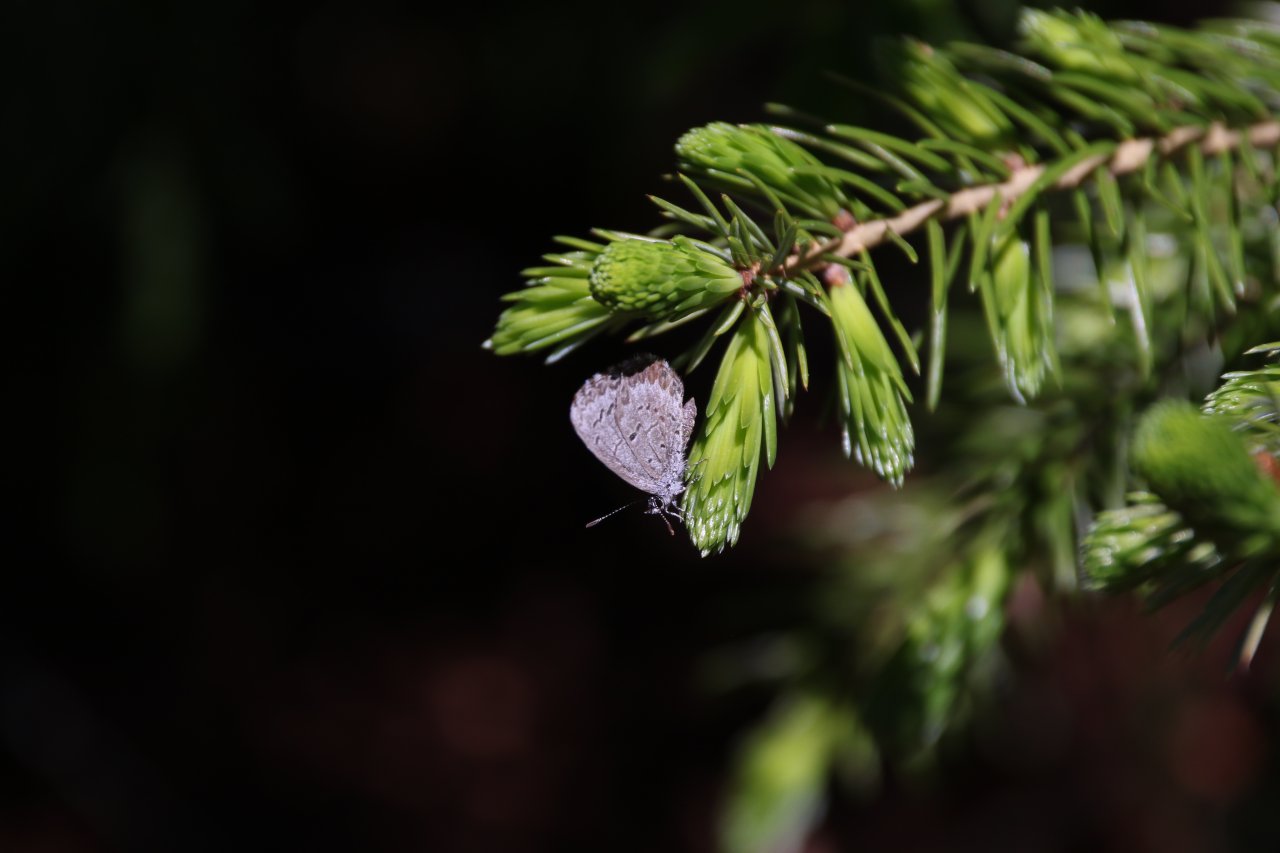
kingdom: Animalia
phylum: Arthropoda
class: Insecta
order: Lepidoptera
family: Lycaenidae
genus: Celastrina
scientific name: Celastrina
